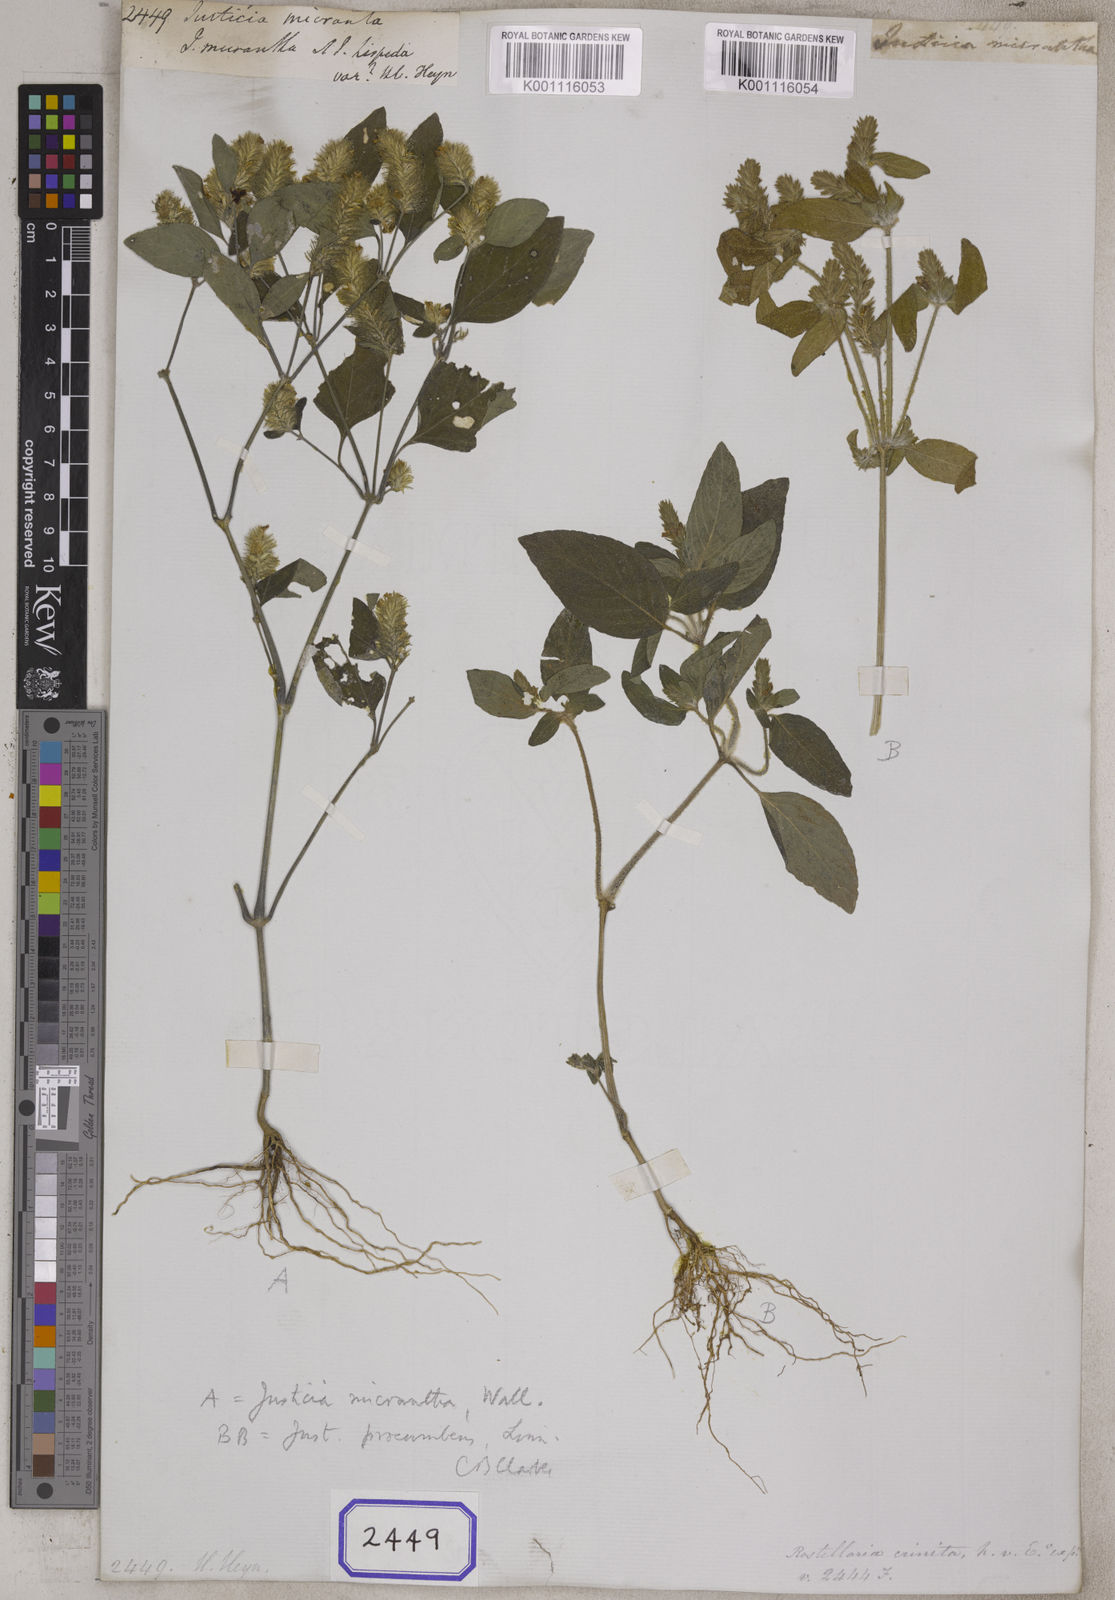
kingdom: Plantae
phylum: Tracheophyta
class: Magnoliopsida
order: Lamiales
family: Acanthaceae
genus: Justicia
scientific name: Justicia
